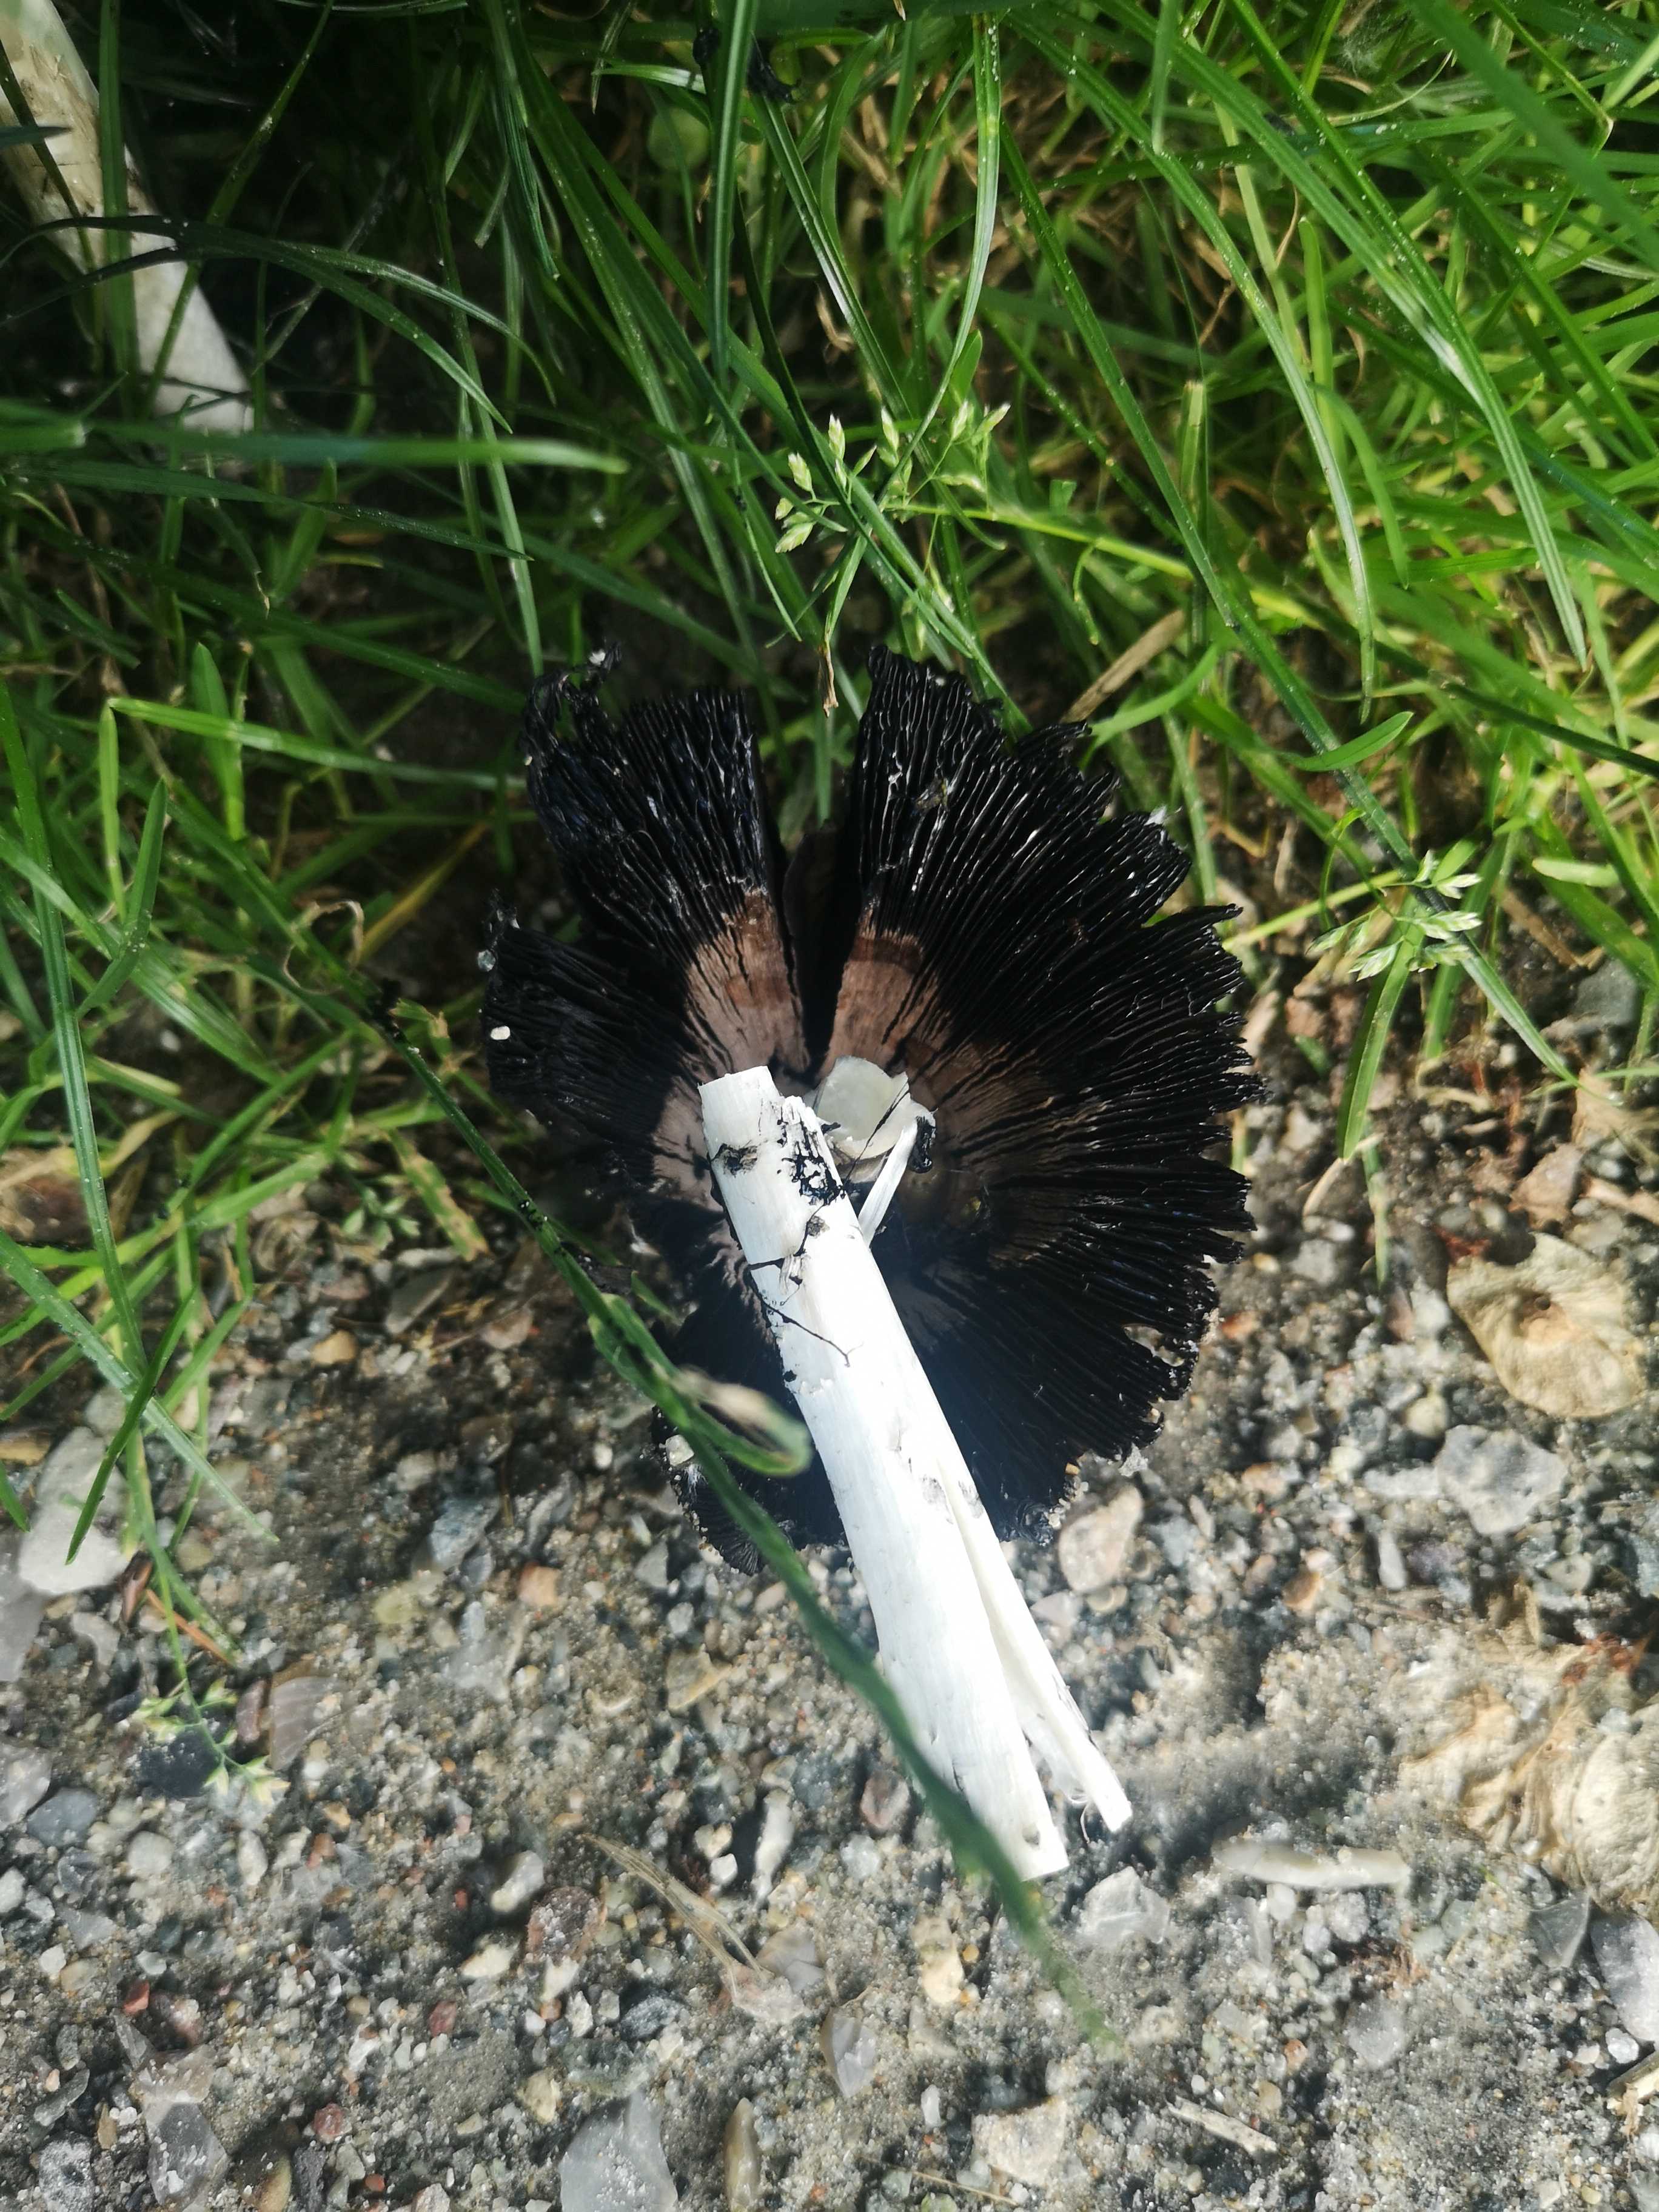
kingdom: Fungi
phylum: Basidiomycota
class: Agaricomycetes
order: Agaricales
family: Agaricaceae
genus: Coprinus
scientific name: Coprinus comatus
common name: stor parykhat
